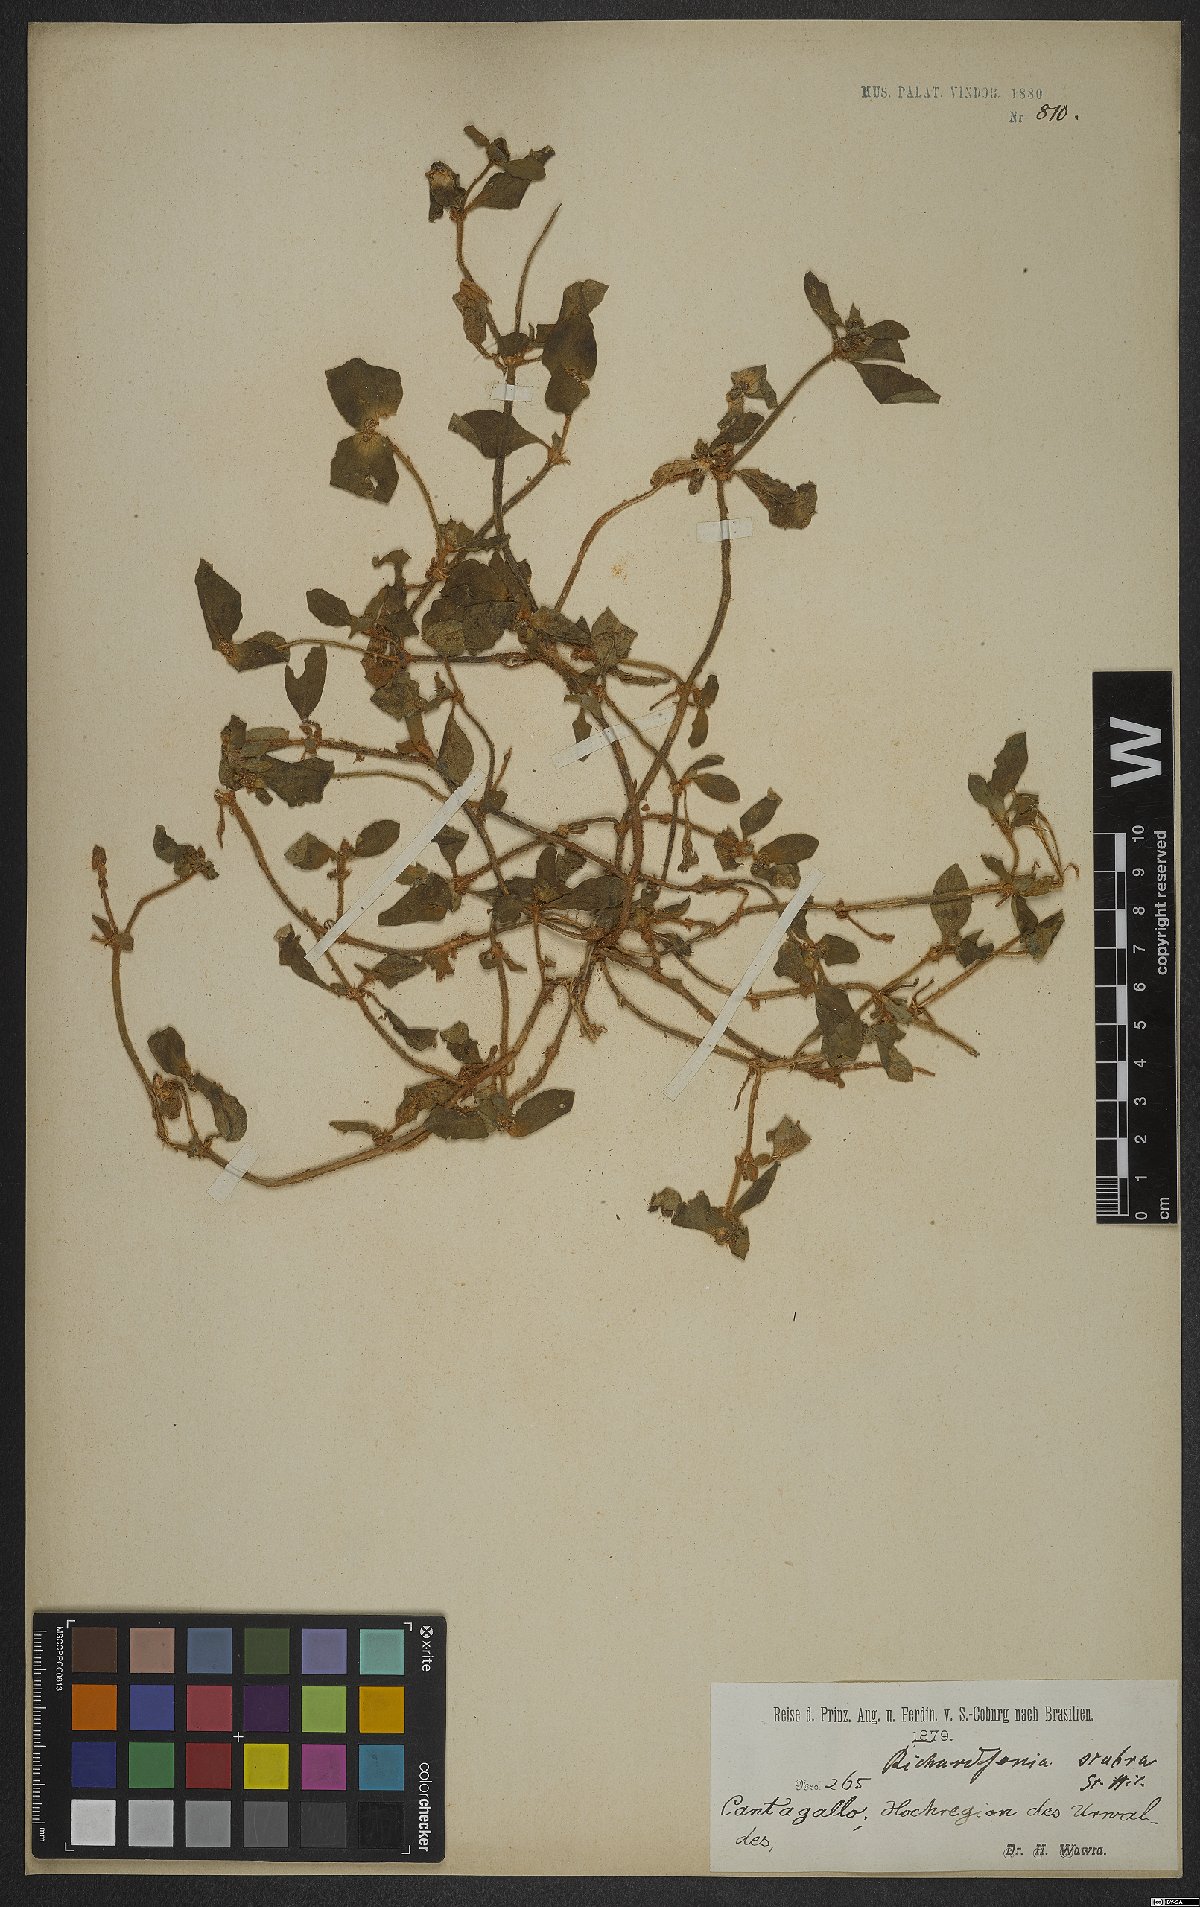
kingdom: Plantae
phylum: Tracheophyta
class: Magnoliopsida
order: Gentianales
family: Rubiaceae
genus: Richardia
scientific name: Richardia scabra
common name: Rough mexican clover
